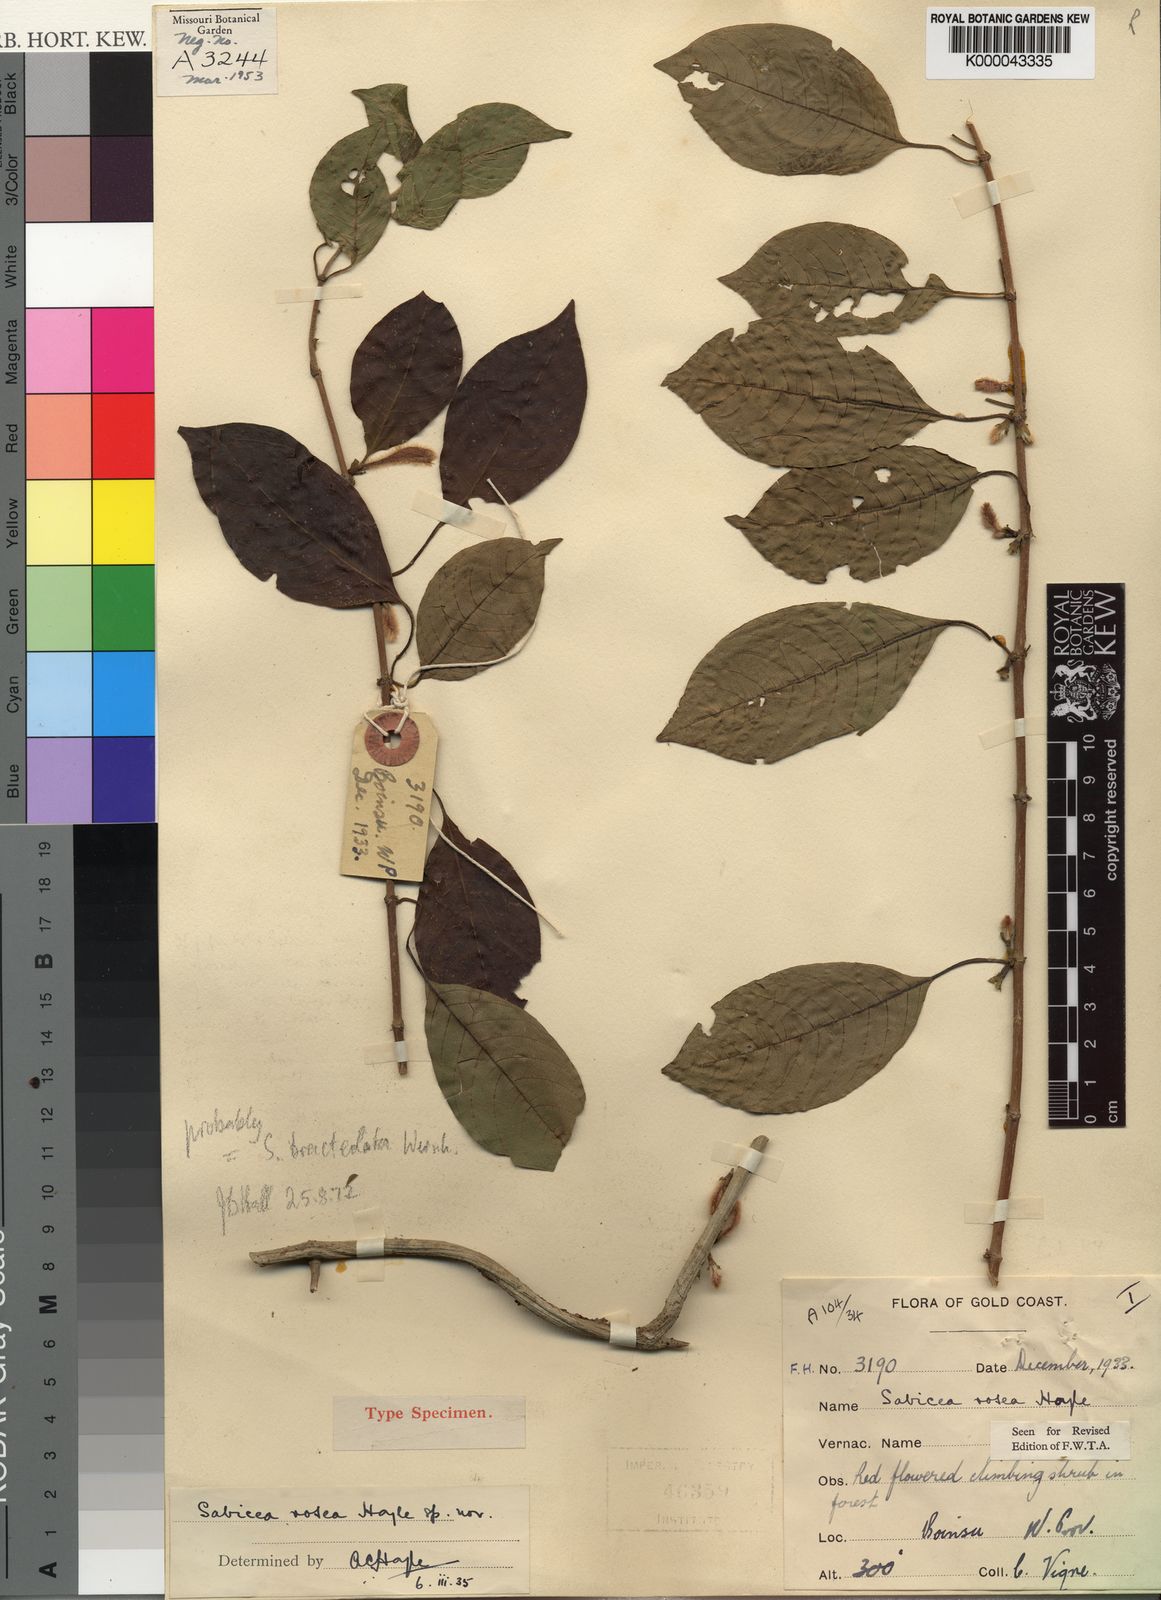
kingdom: Plantae
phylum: Tracheophyta
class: Magnoliopsida
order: Gentianales
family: Rubiaceae
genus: Sabicea
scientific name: Sabicea rosea
